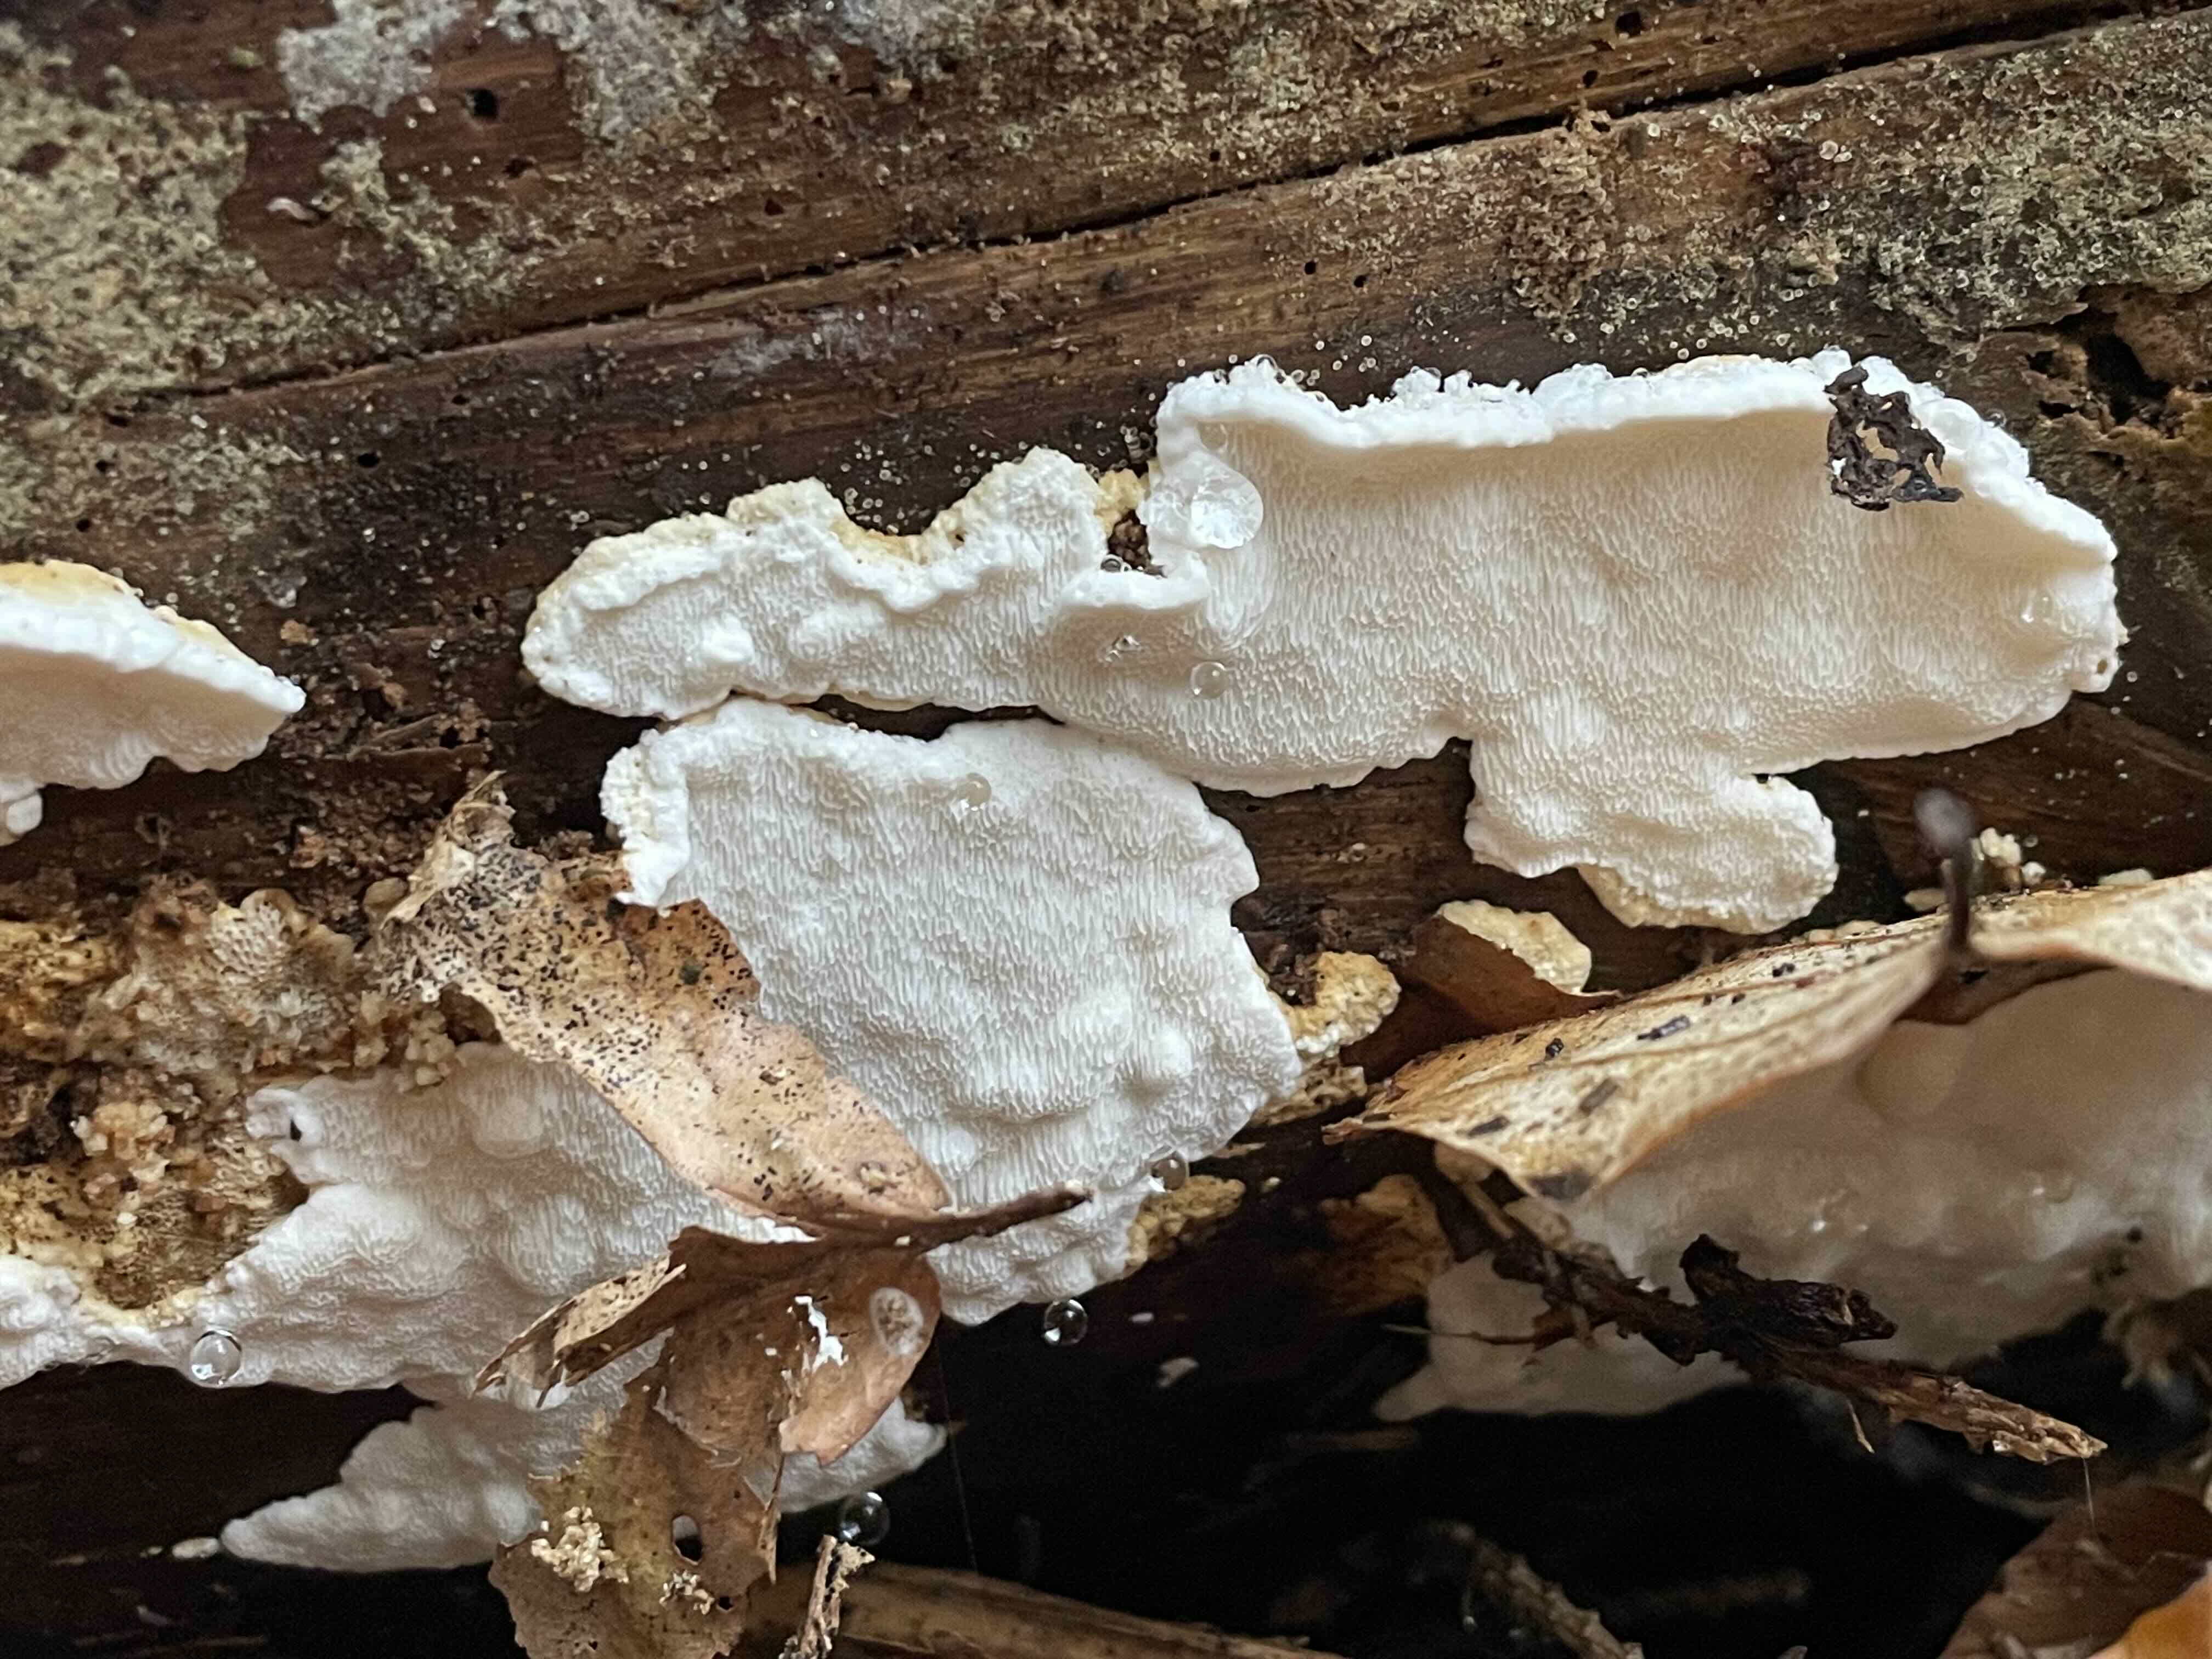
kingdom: Fungi
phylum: Basidiomycota
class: Agaricomycetes
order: Polyporales
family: Fomitopsidaceae
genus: Neoantrodia
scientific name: Neoantrodia serialis
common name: række-sejporesvamp
